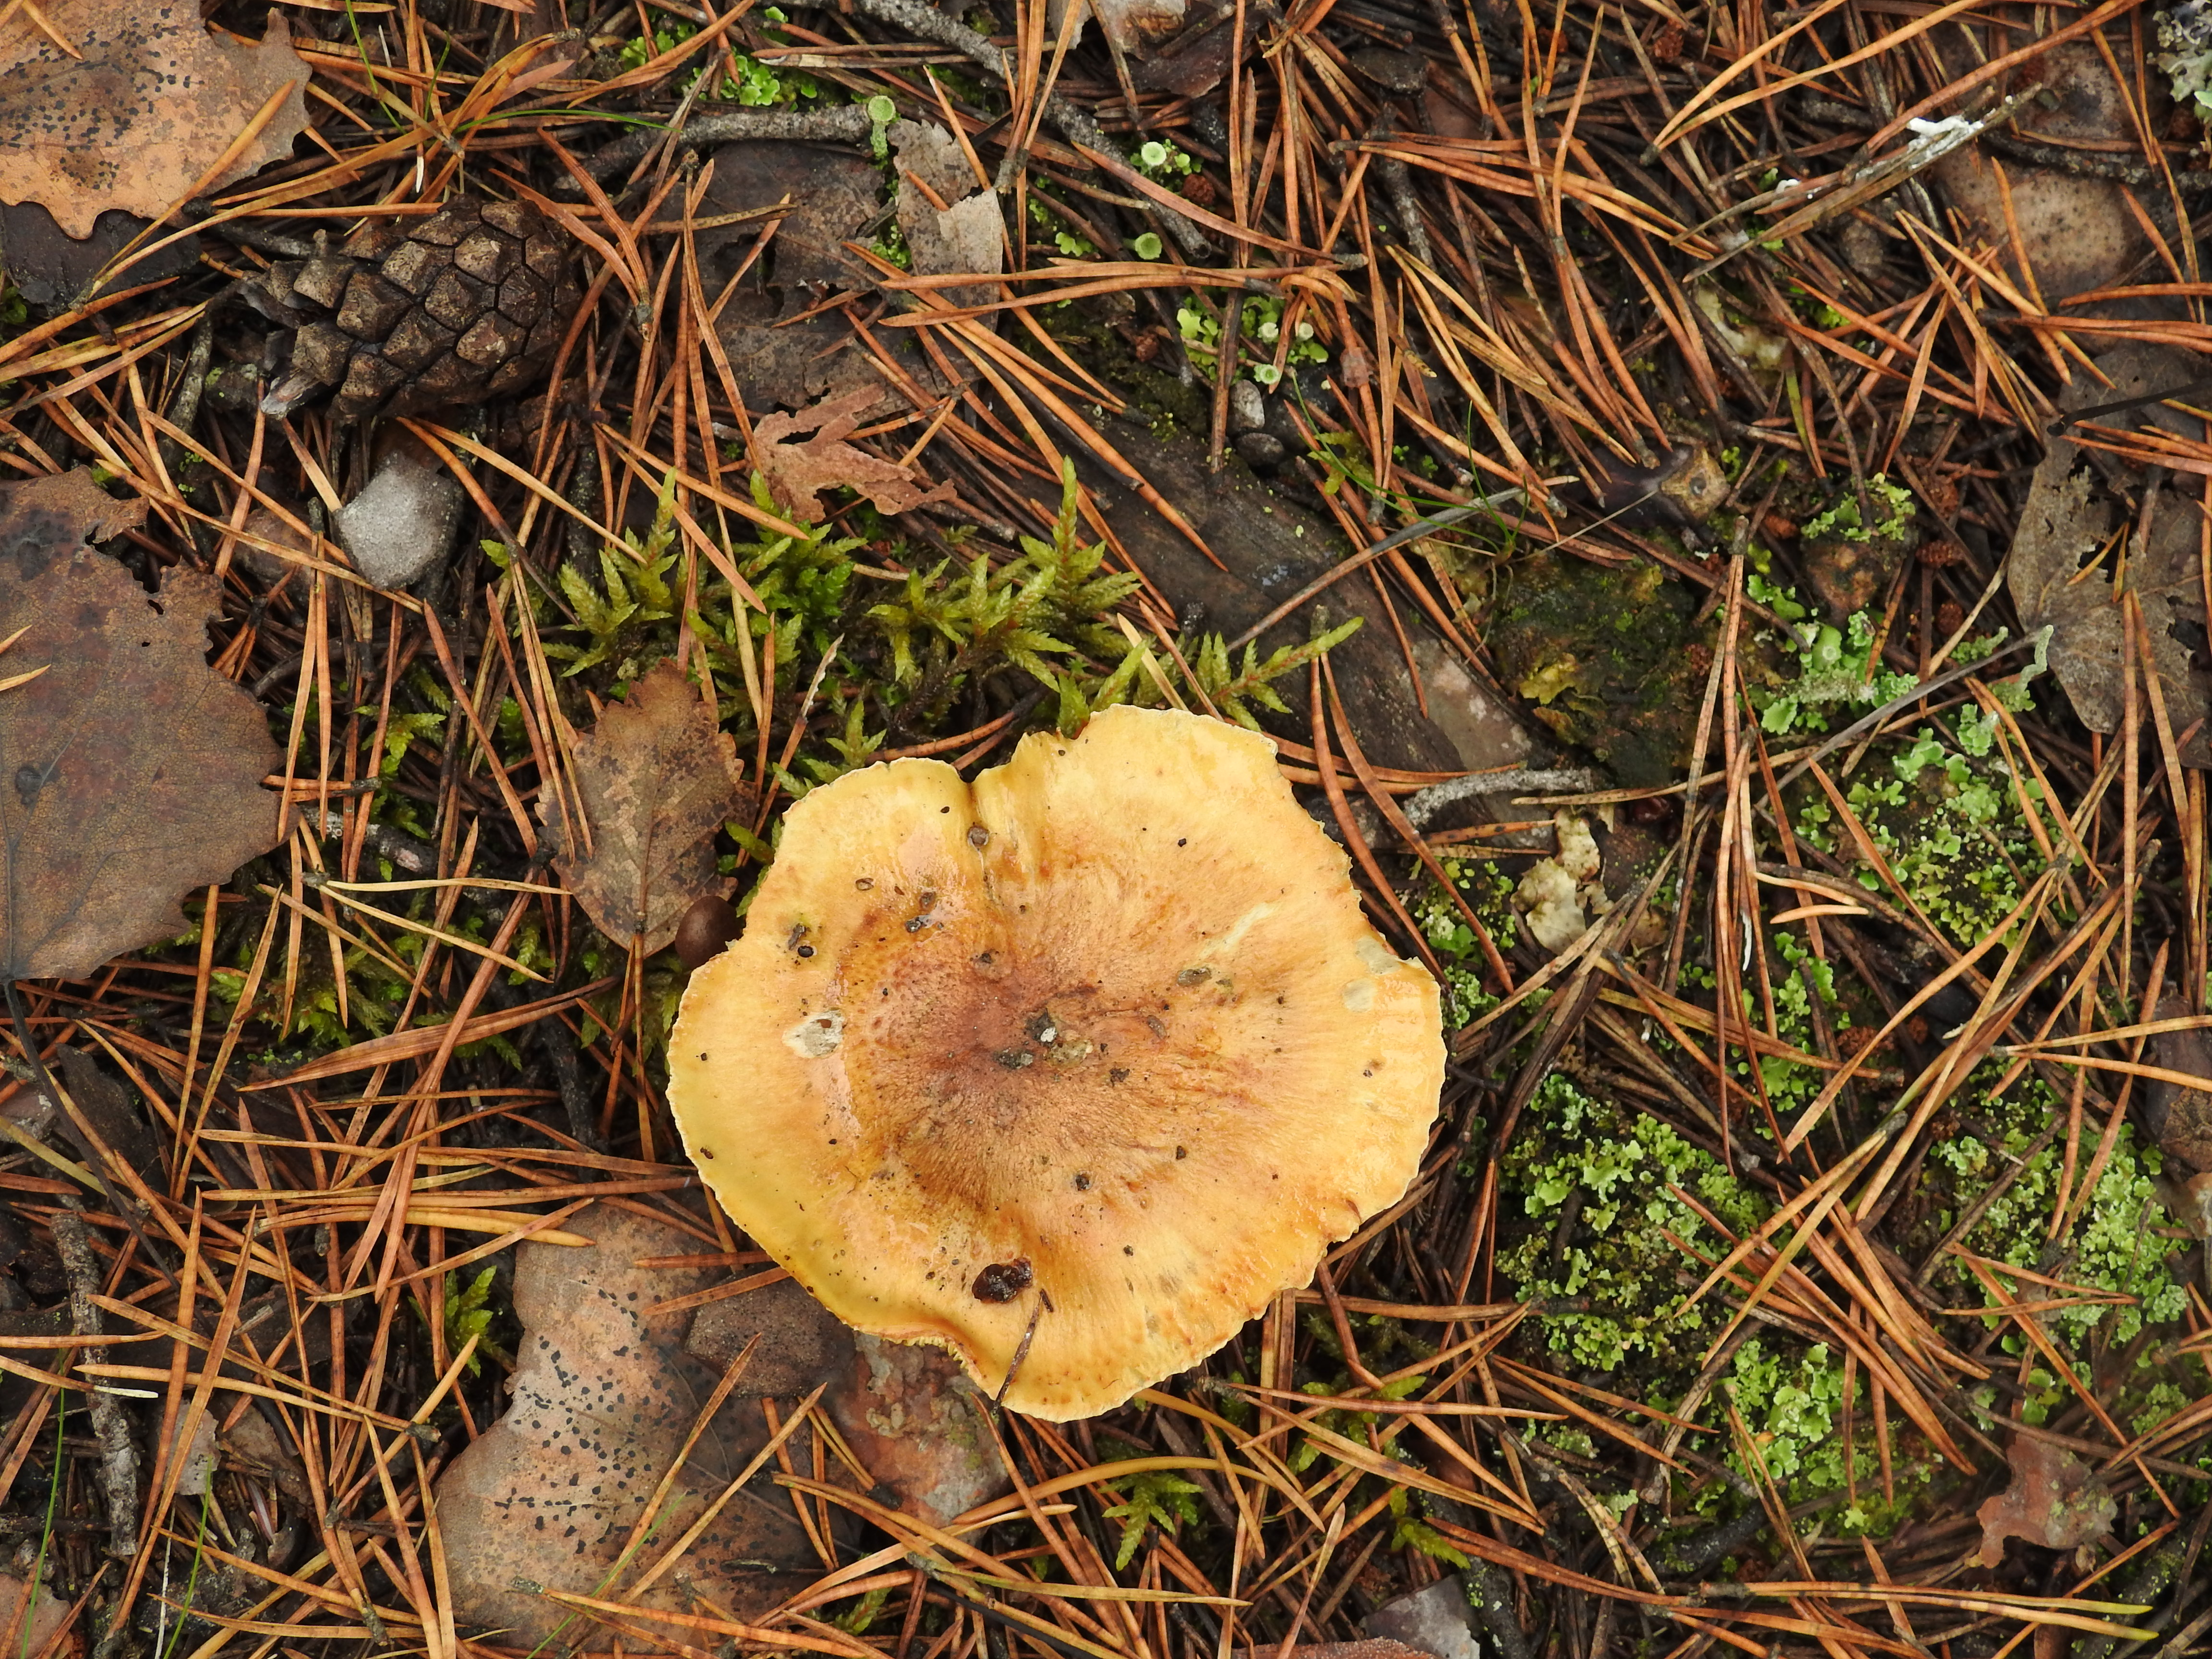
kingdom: Fungi
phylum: Basidiomycota
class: Agaricomycetes
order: Agaricales
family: Tricholomataceae
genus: Tricholoma
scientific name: Tricholoma equestre
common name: Yellow knight
